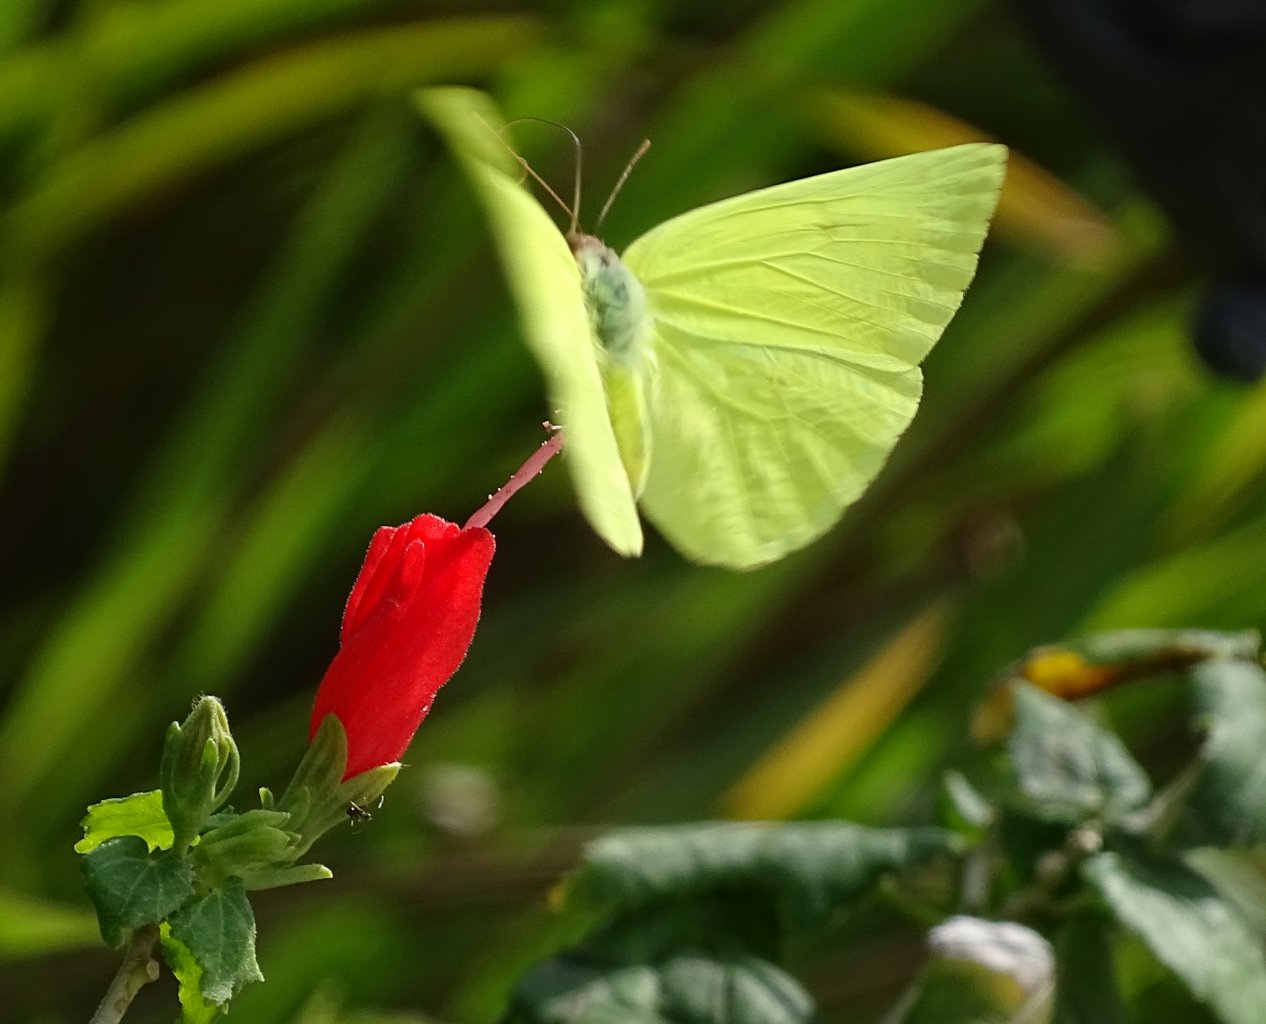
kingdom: Animalia
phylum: Arthropoda
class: Insecta
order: Lepidoptera
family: Pieridae
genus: Aphrissa
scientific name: Aphrissa statira
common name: Statira Sulphur
